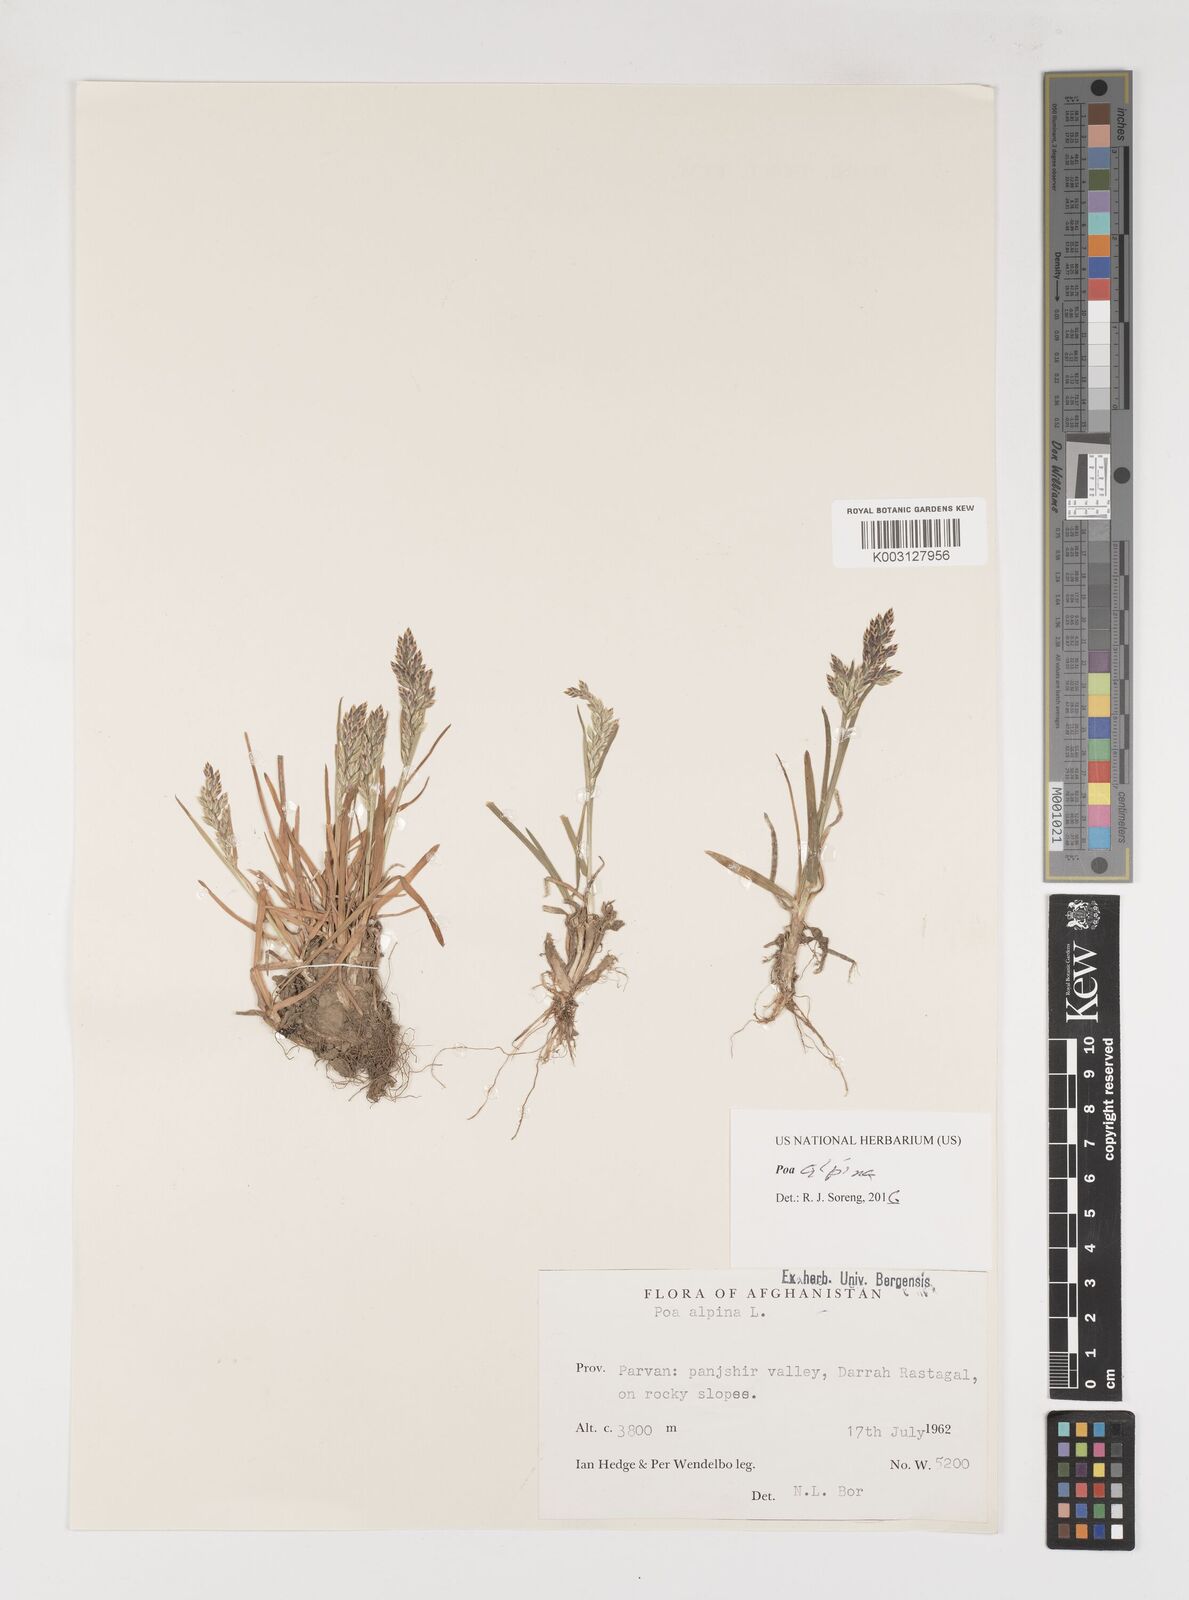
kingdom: Plantae
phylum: Tracheophyta
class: Liliopsida
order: Poales
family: Poaceae
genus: Poa
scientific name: Poa alpina
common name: Alpine bluegrass
